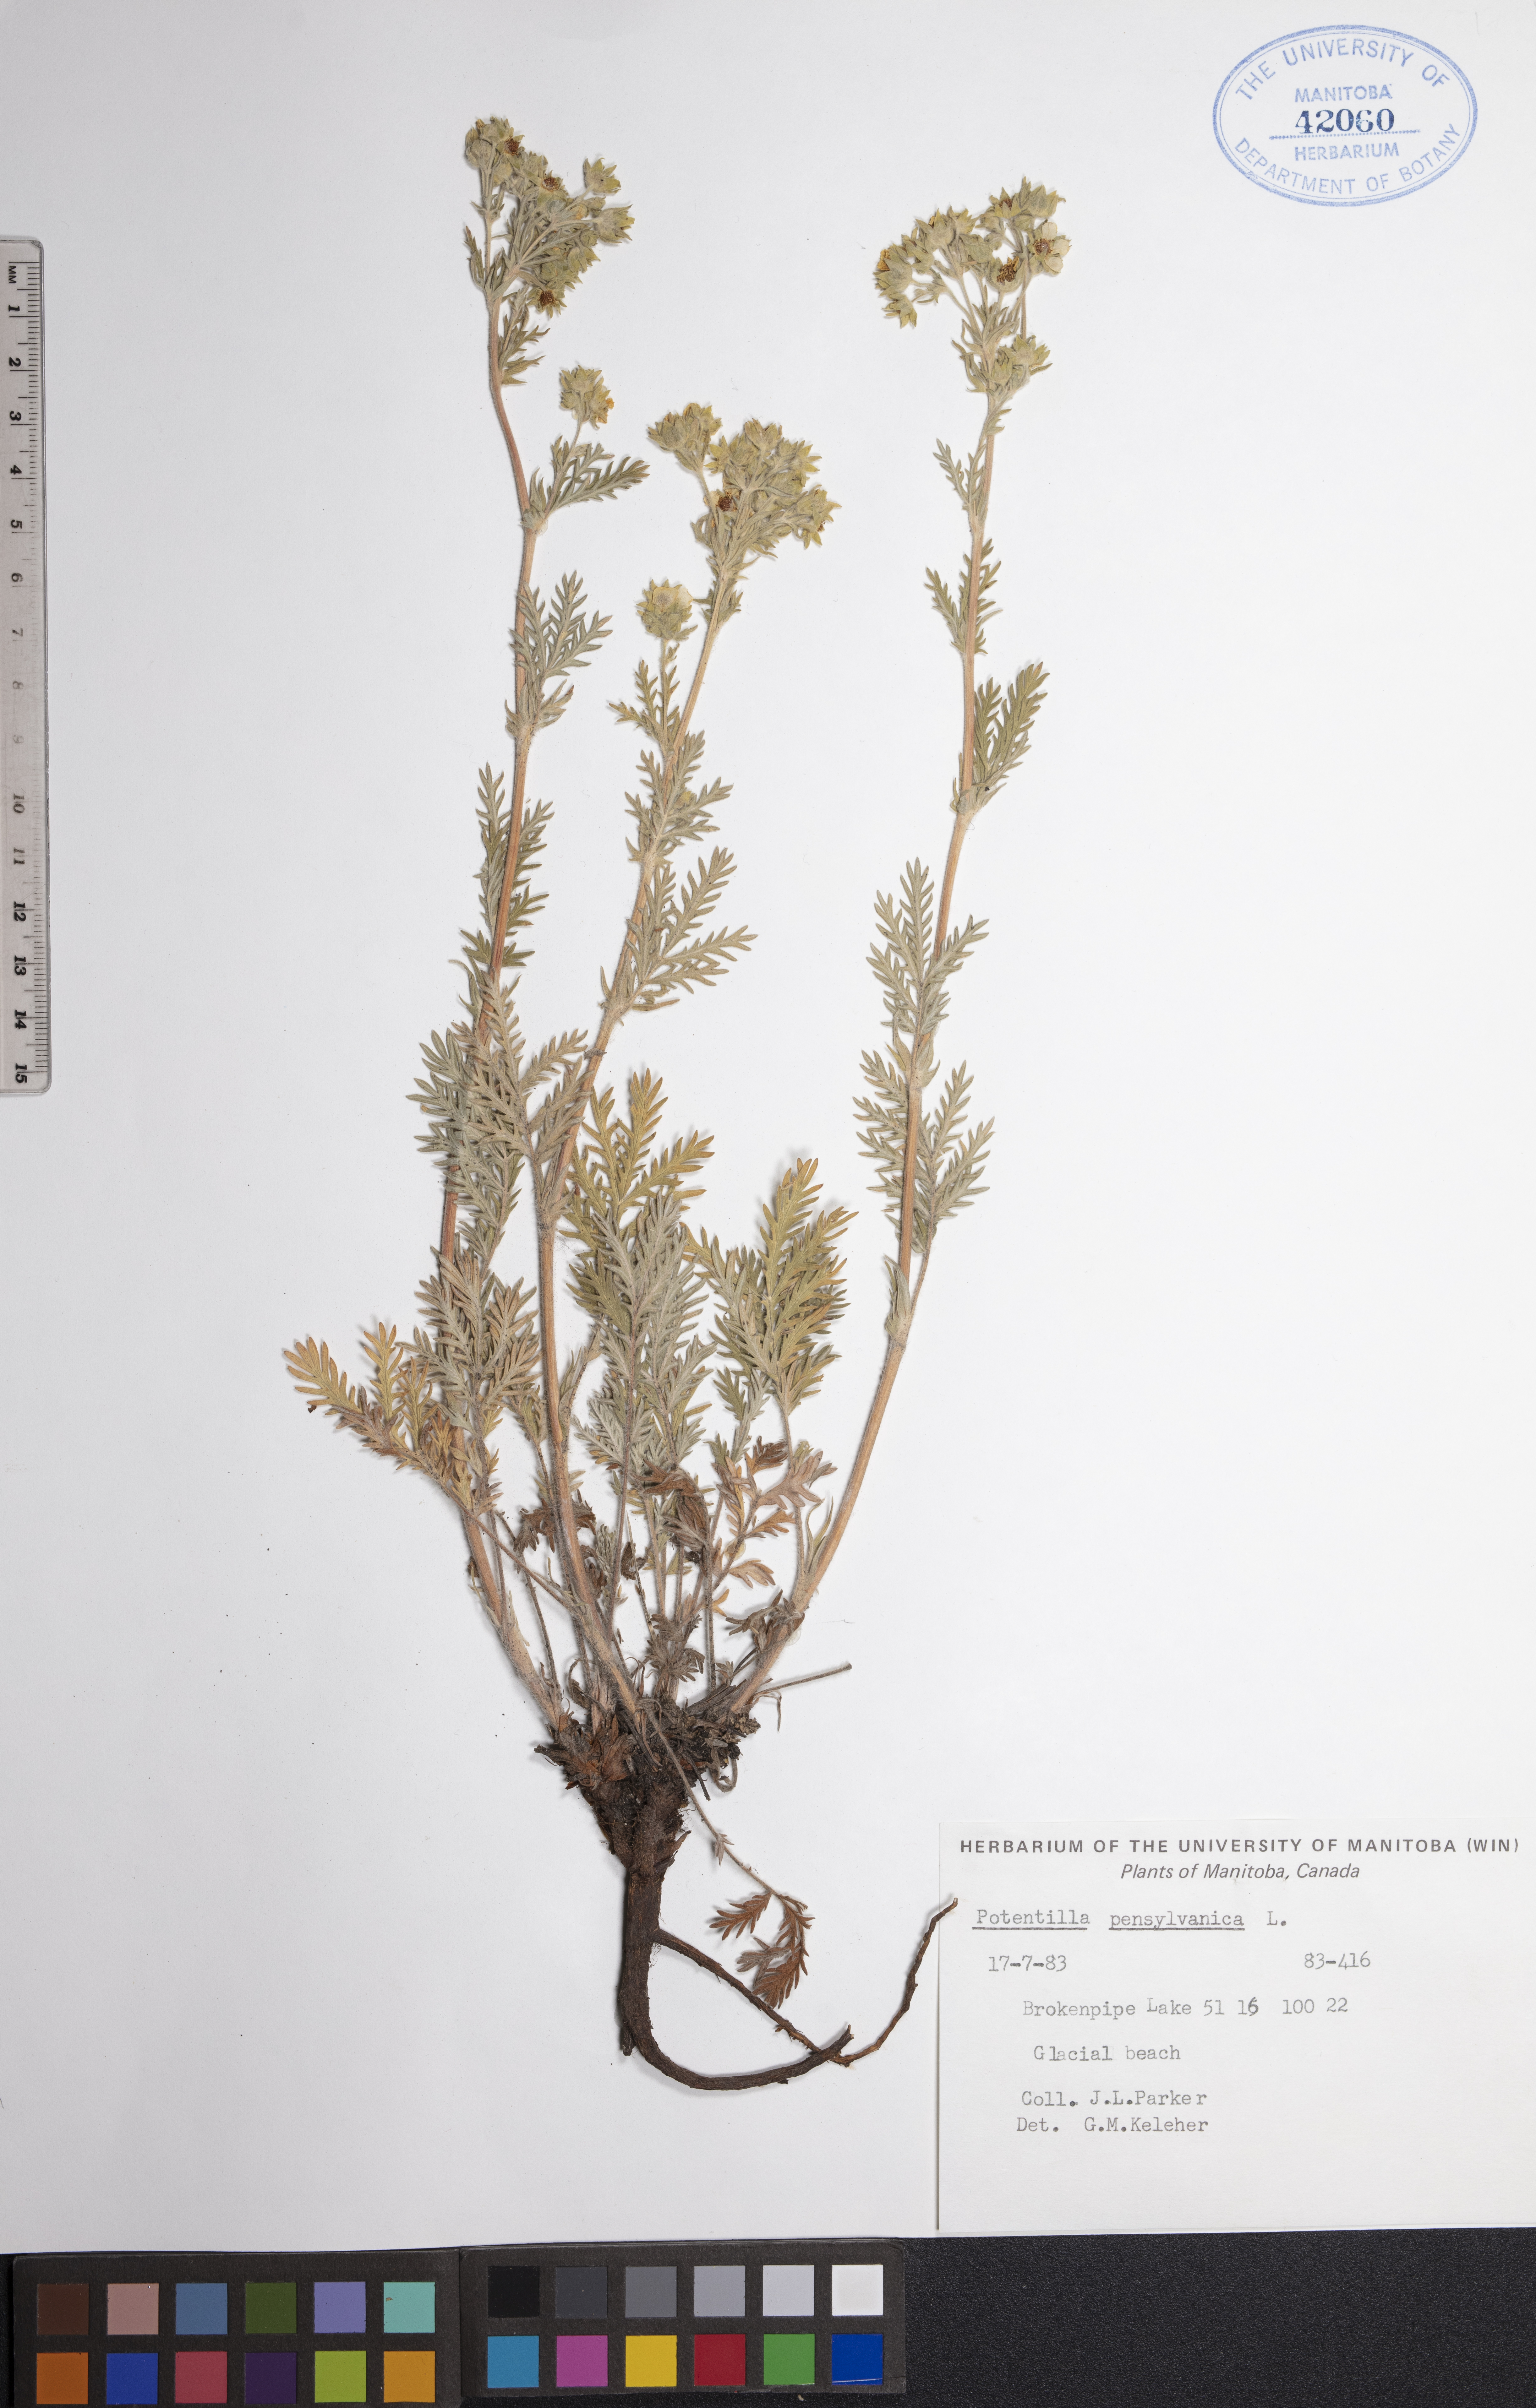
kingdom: Plantae
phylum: Tracheophyta
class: Magnoliopsida
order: Rosales
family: Rosaceae
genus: Potentilla
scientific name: Potentilla pensylvanica
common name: Pennsylvania cinquefoil
